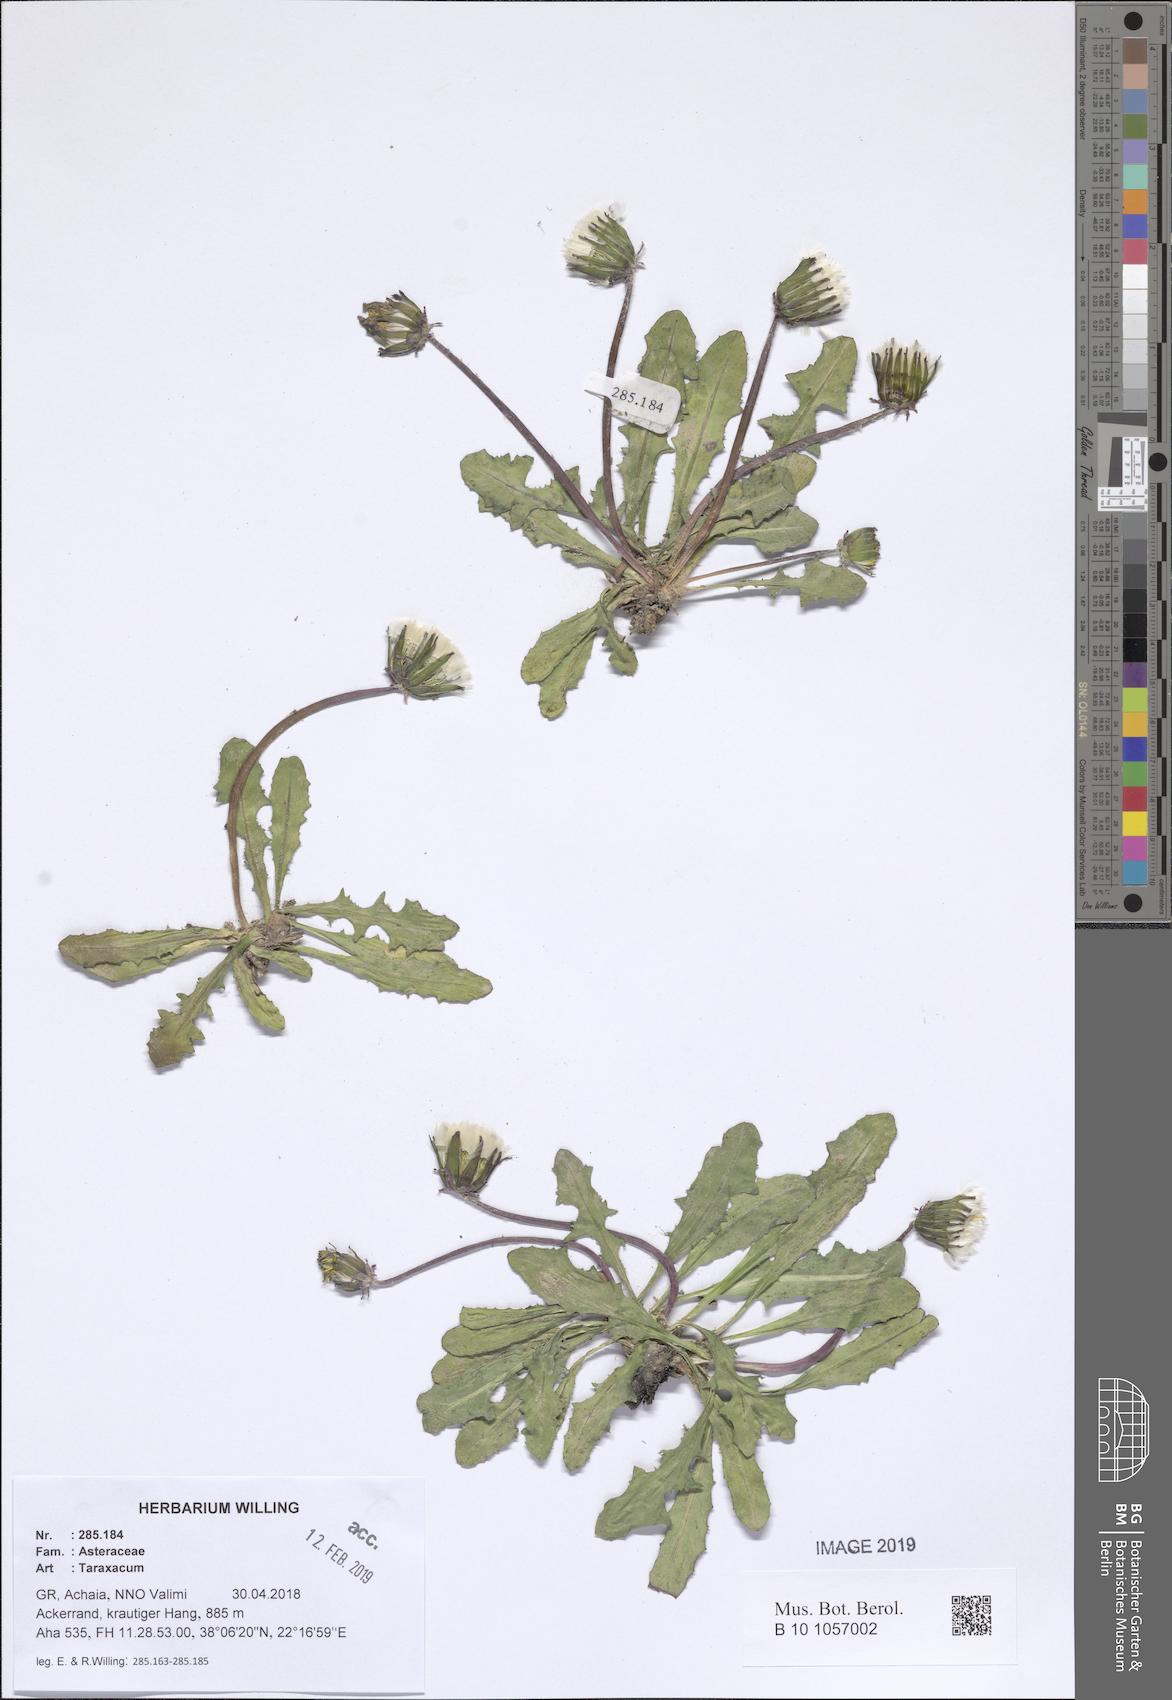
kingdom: Plantae
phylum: Tracheophyta
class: Magnoliopsida
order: Asterales
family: Asteraceae
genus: Taraxacum
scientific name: Taraxacum
